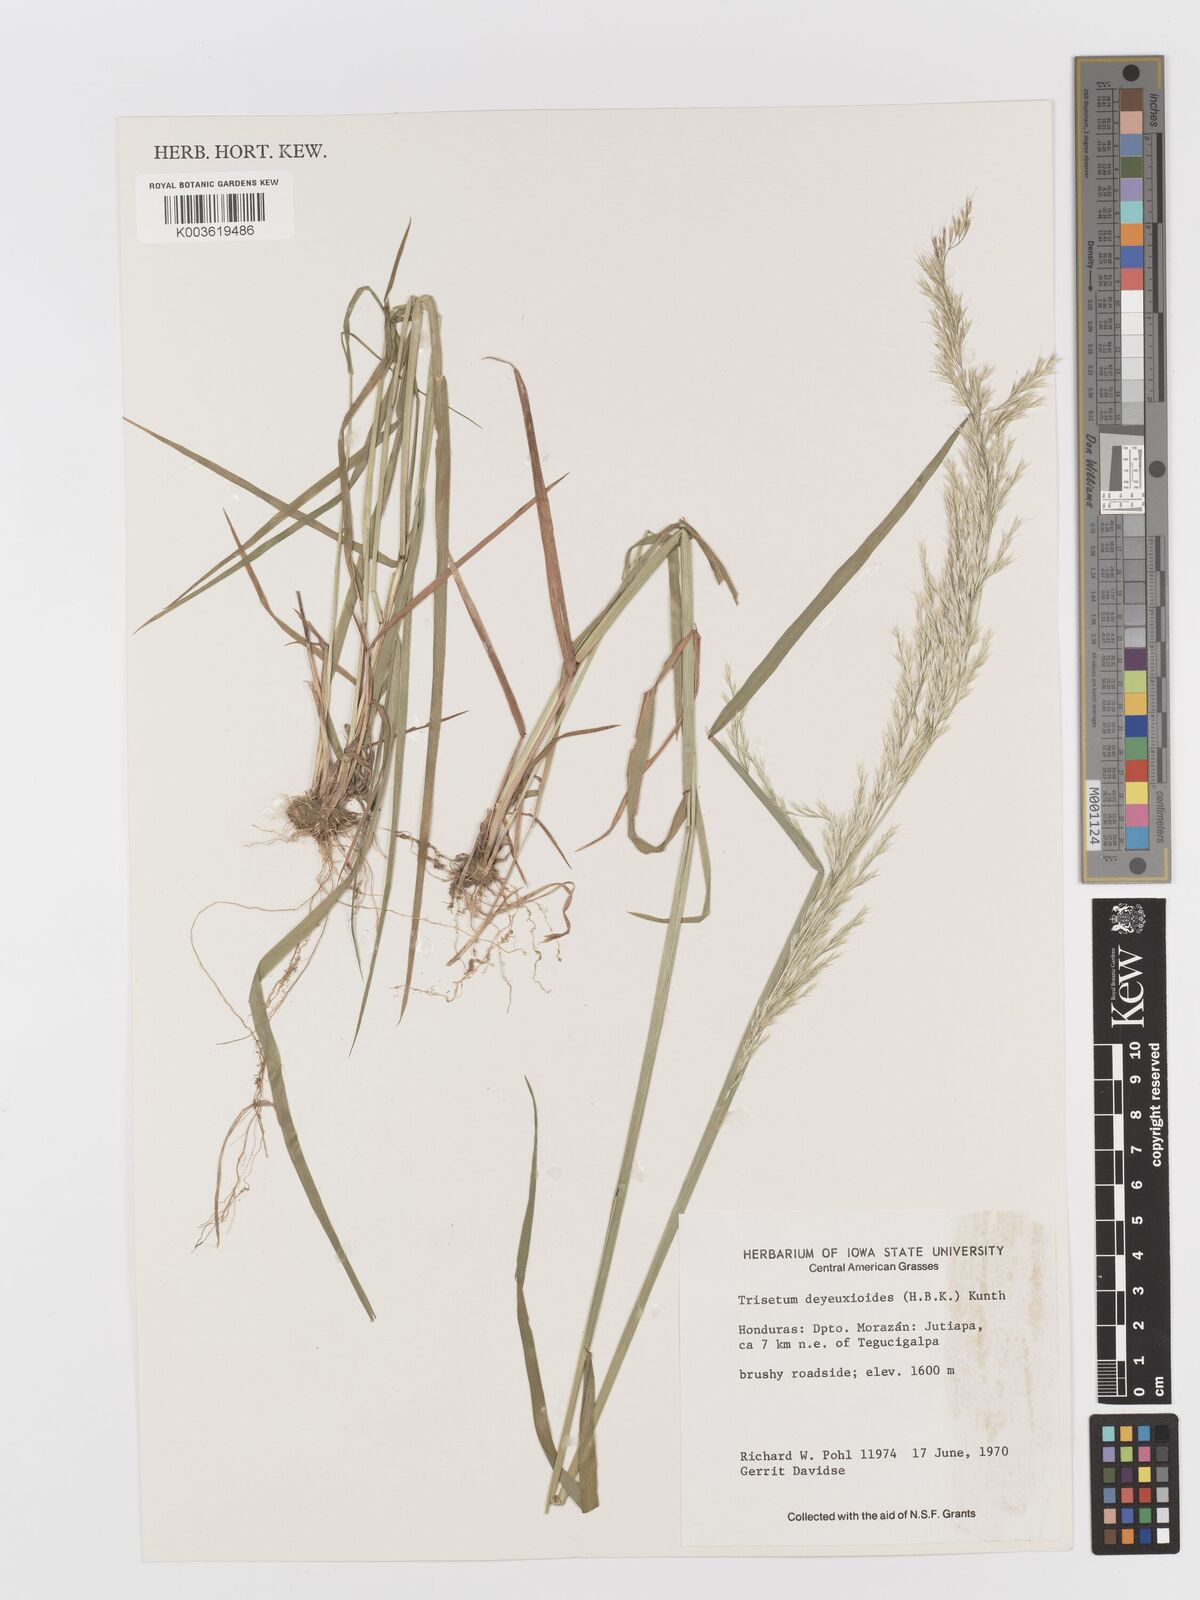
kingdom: Plantae
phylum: Tracheophyta
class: Liliopsida
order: Poales
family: Poaceae
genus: Peyritschia
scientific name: Peyritschia deyeuxioides
